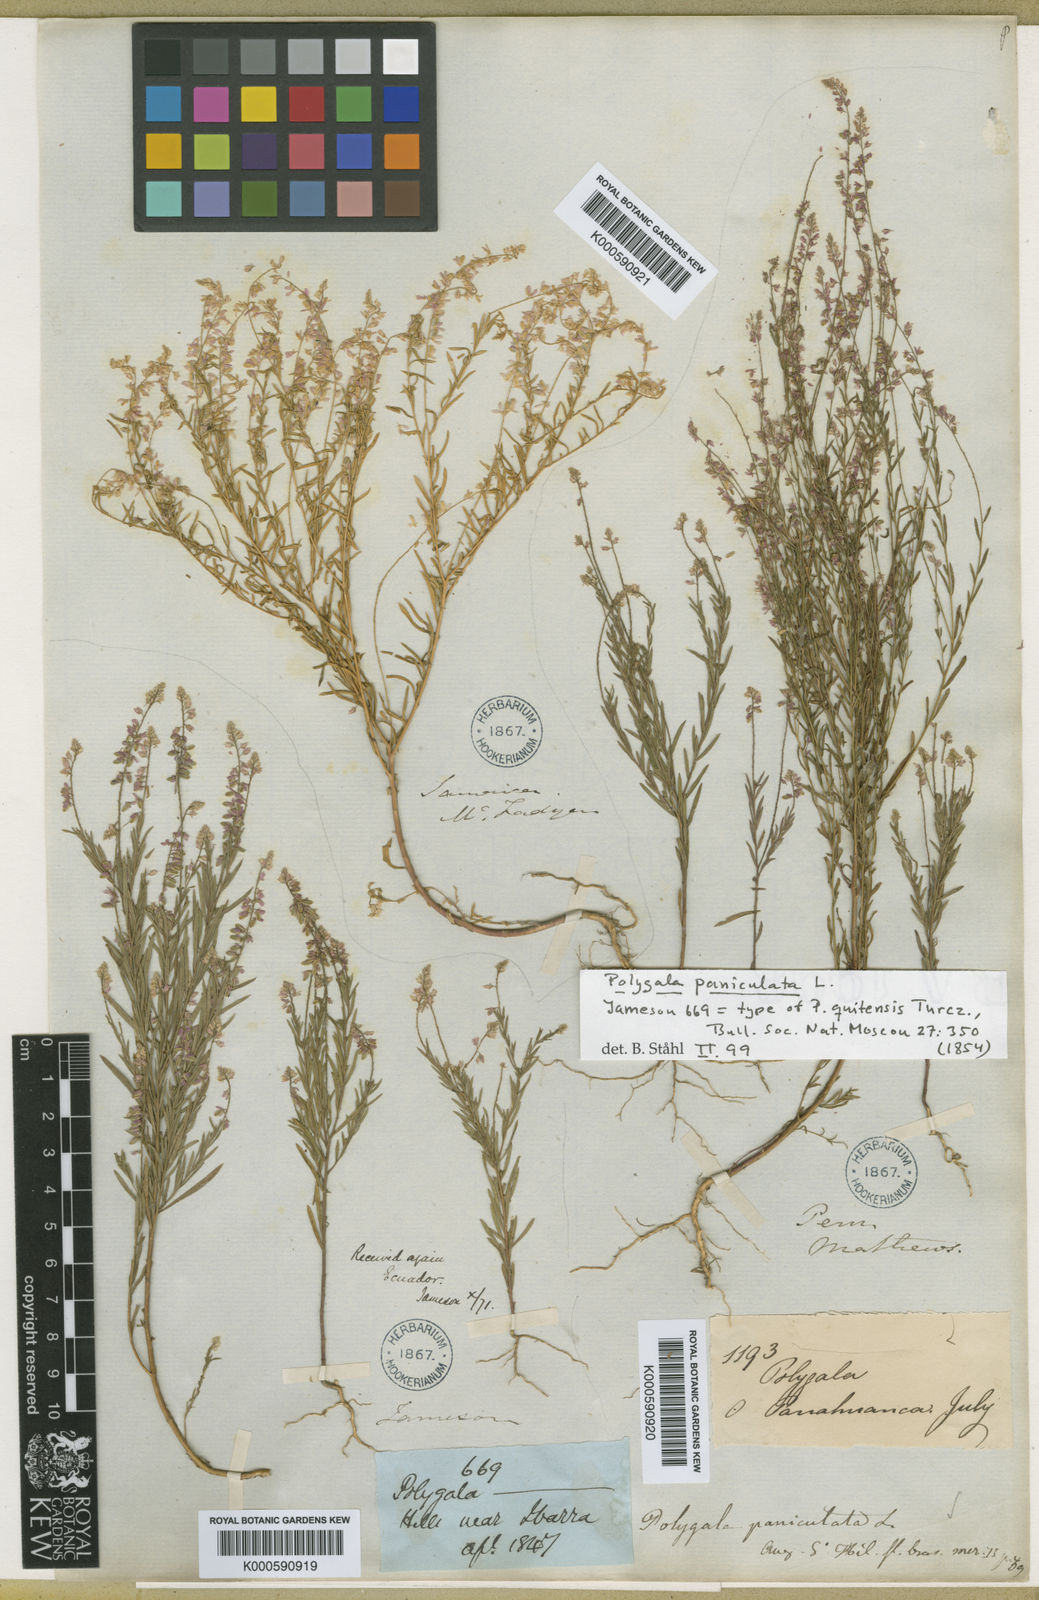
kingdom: Plantae
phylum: Tracheophyta
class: Magnoliopsida
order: Fabales
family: Polygalaceae
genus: Polygala
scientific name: Polygala paniculata
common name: Orosne
